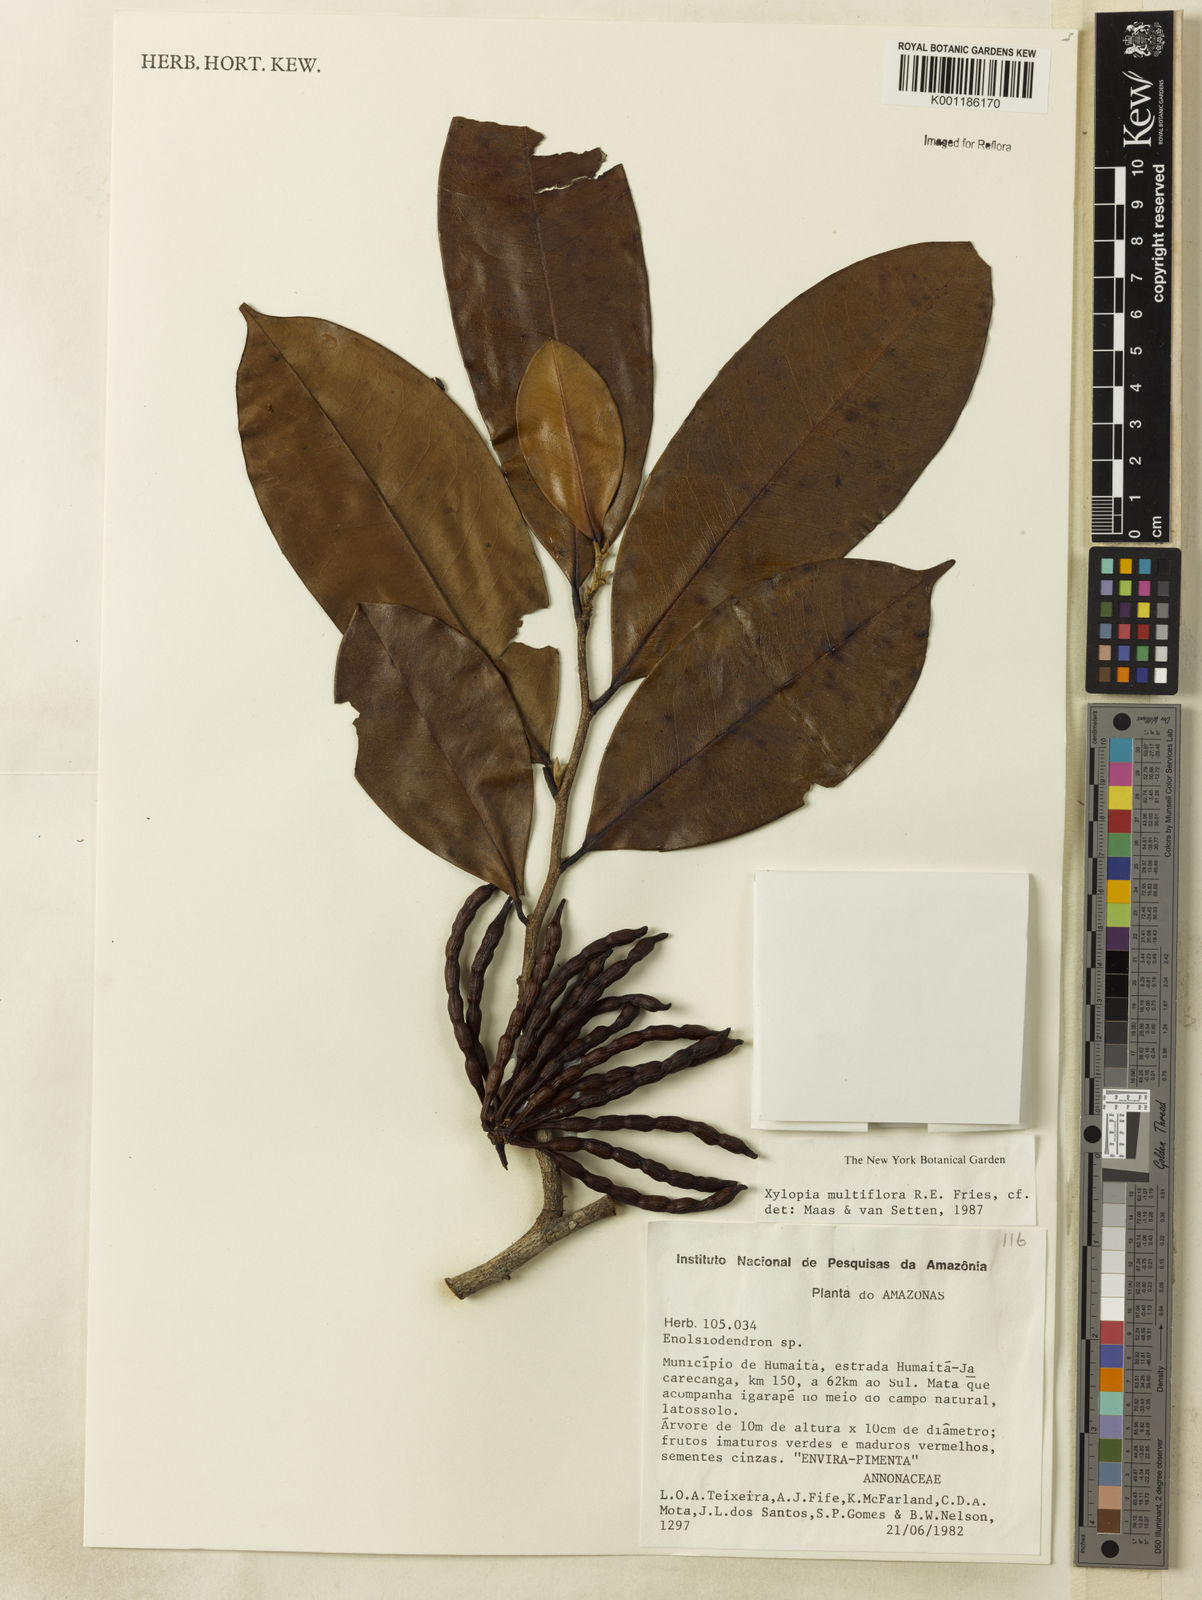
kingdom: Plantae
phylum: Tracheophyta
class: Magnoliopsida
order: Magnoliales
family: Annonaceae
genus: Xylopia
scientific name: Xylopia multiflora
